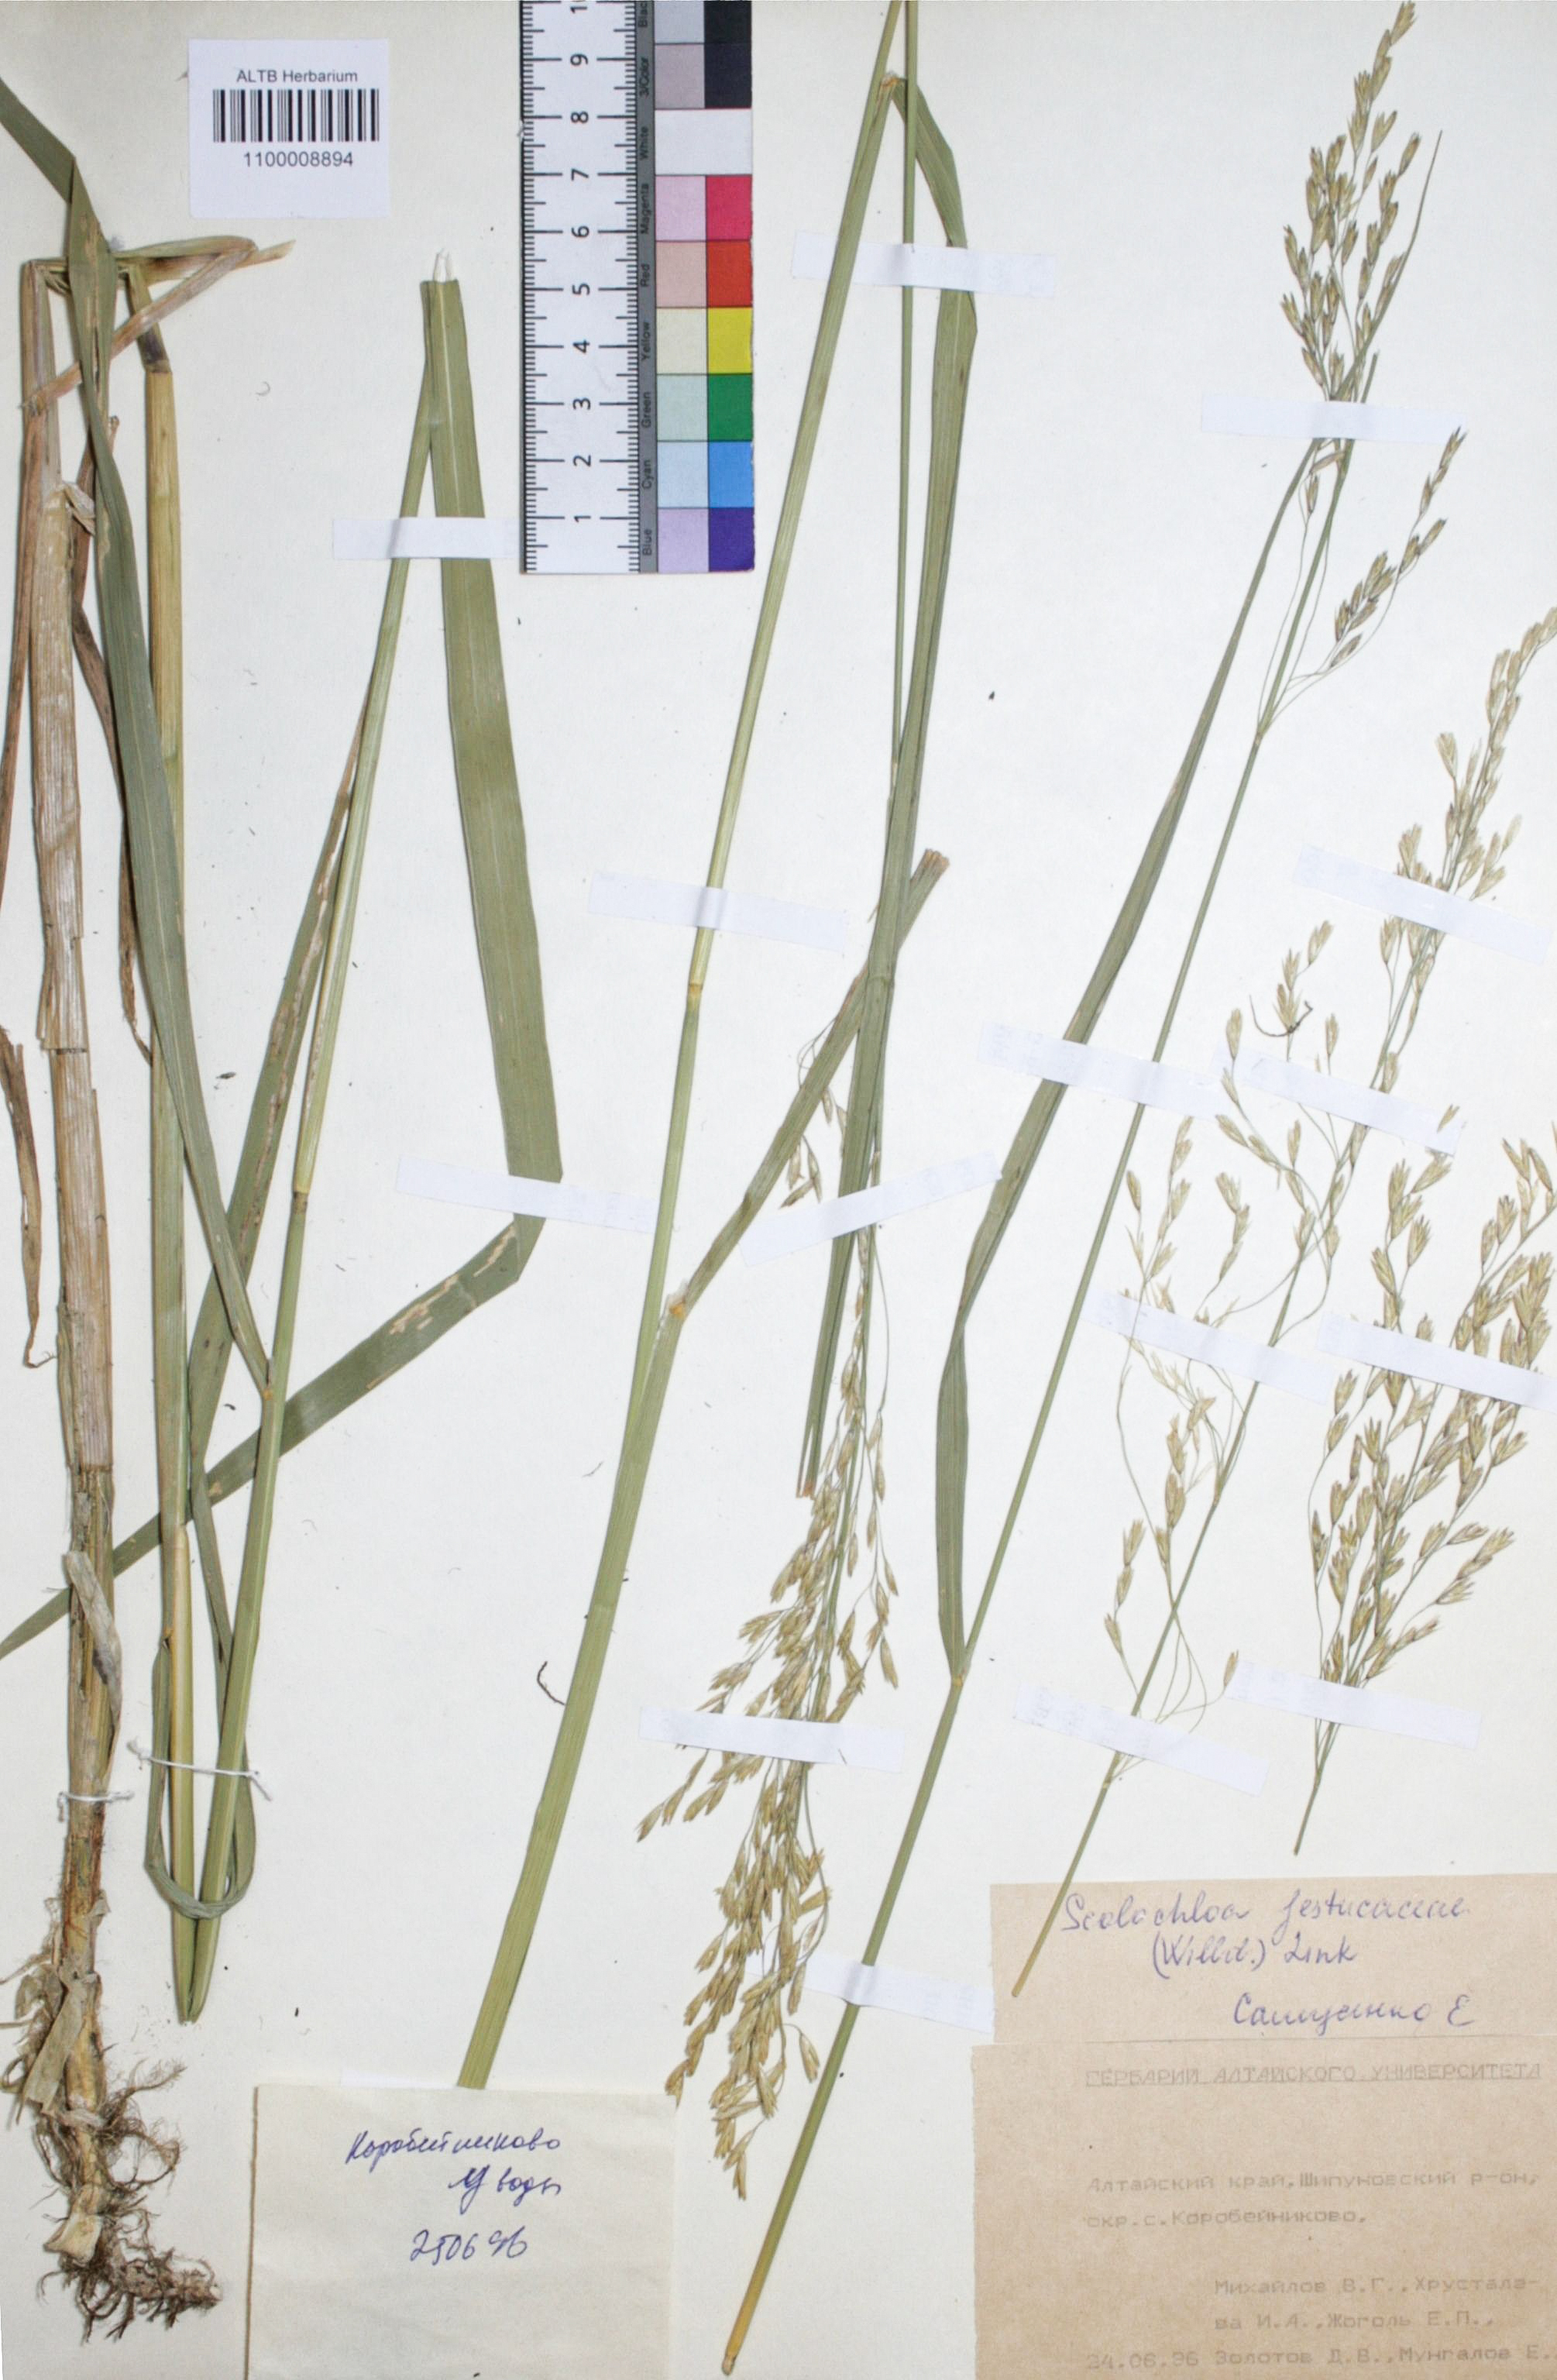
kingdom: Plantae
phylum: Tracheophyta
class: Liliopsida
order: Poales
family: Poaceae
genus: Scolochloa
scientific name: Scolochloa festucacea
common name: Common rivergrass
